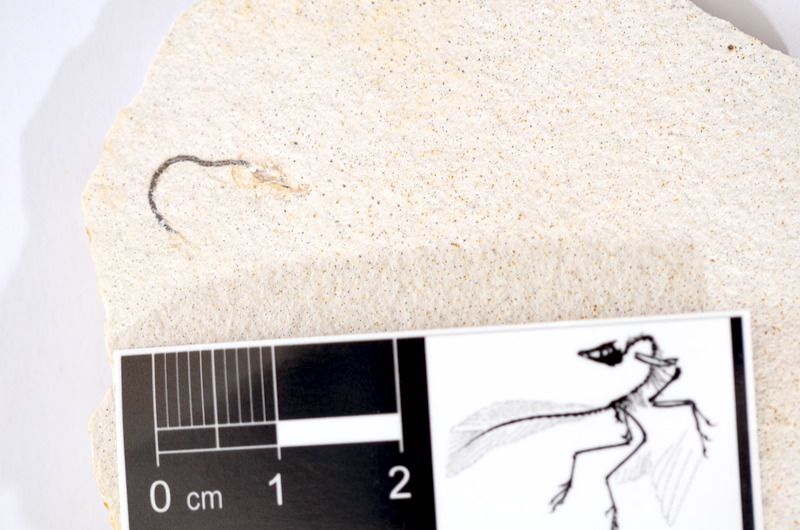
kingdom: Animalia
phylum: Chordata
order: Salmoniformes
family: Orthogonikleithridae
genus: Orthogonikleithrus
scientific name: Orthogonikleithrus hoelli
